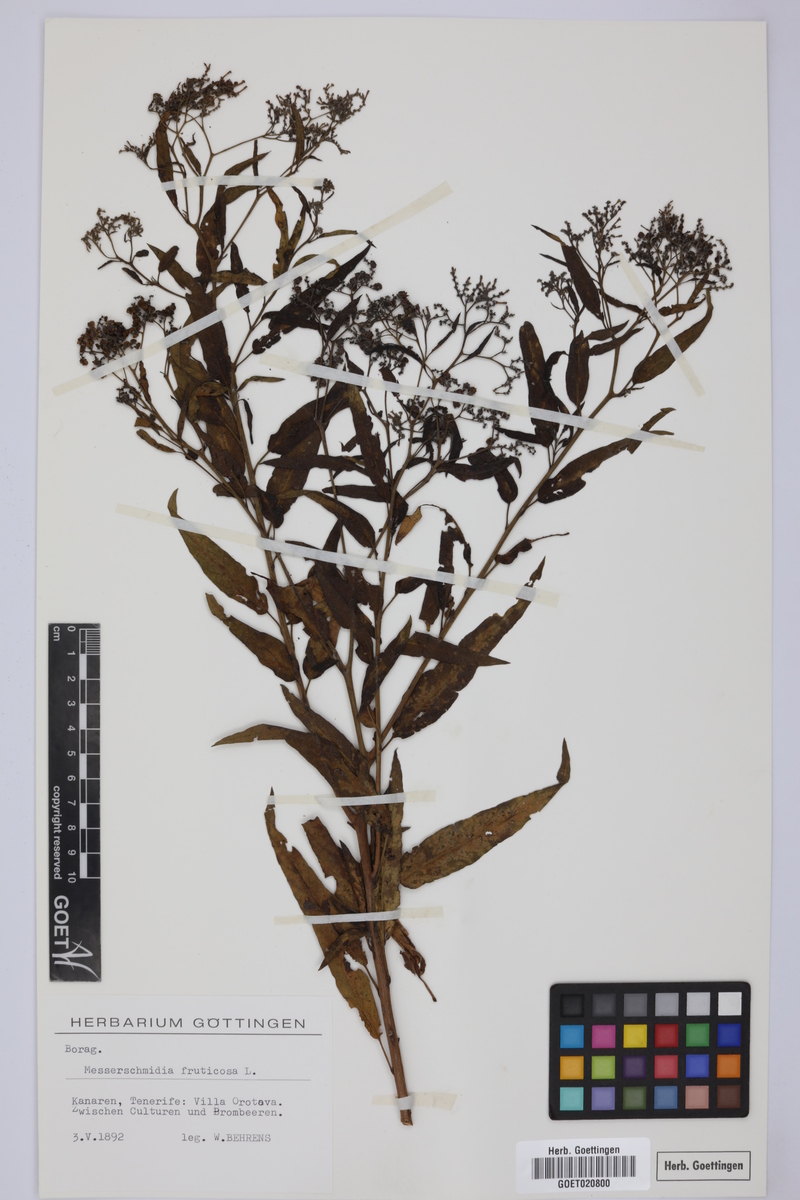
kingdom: Plantae
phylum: Tracheophyta
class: Magnoliopsida
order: Boraginales
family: Heliotropiaceae
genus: Heliotropium
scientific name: Heliotropium messerschmidioides
